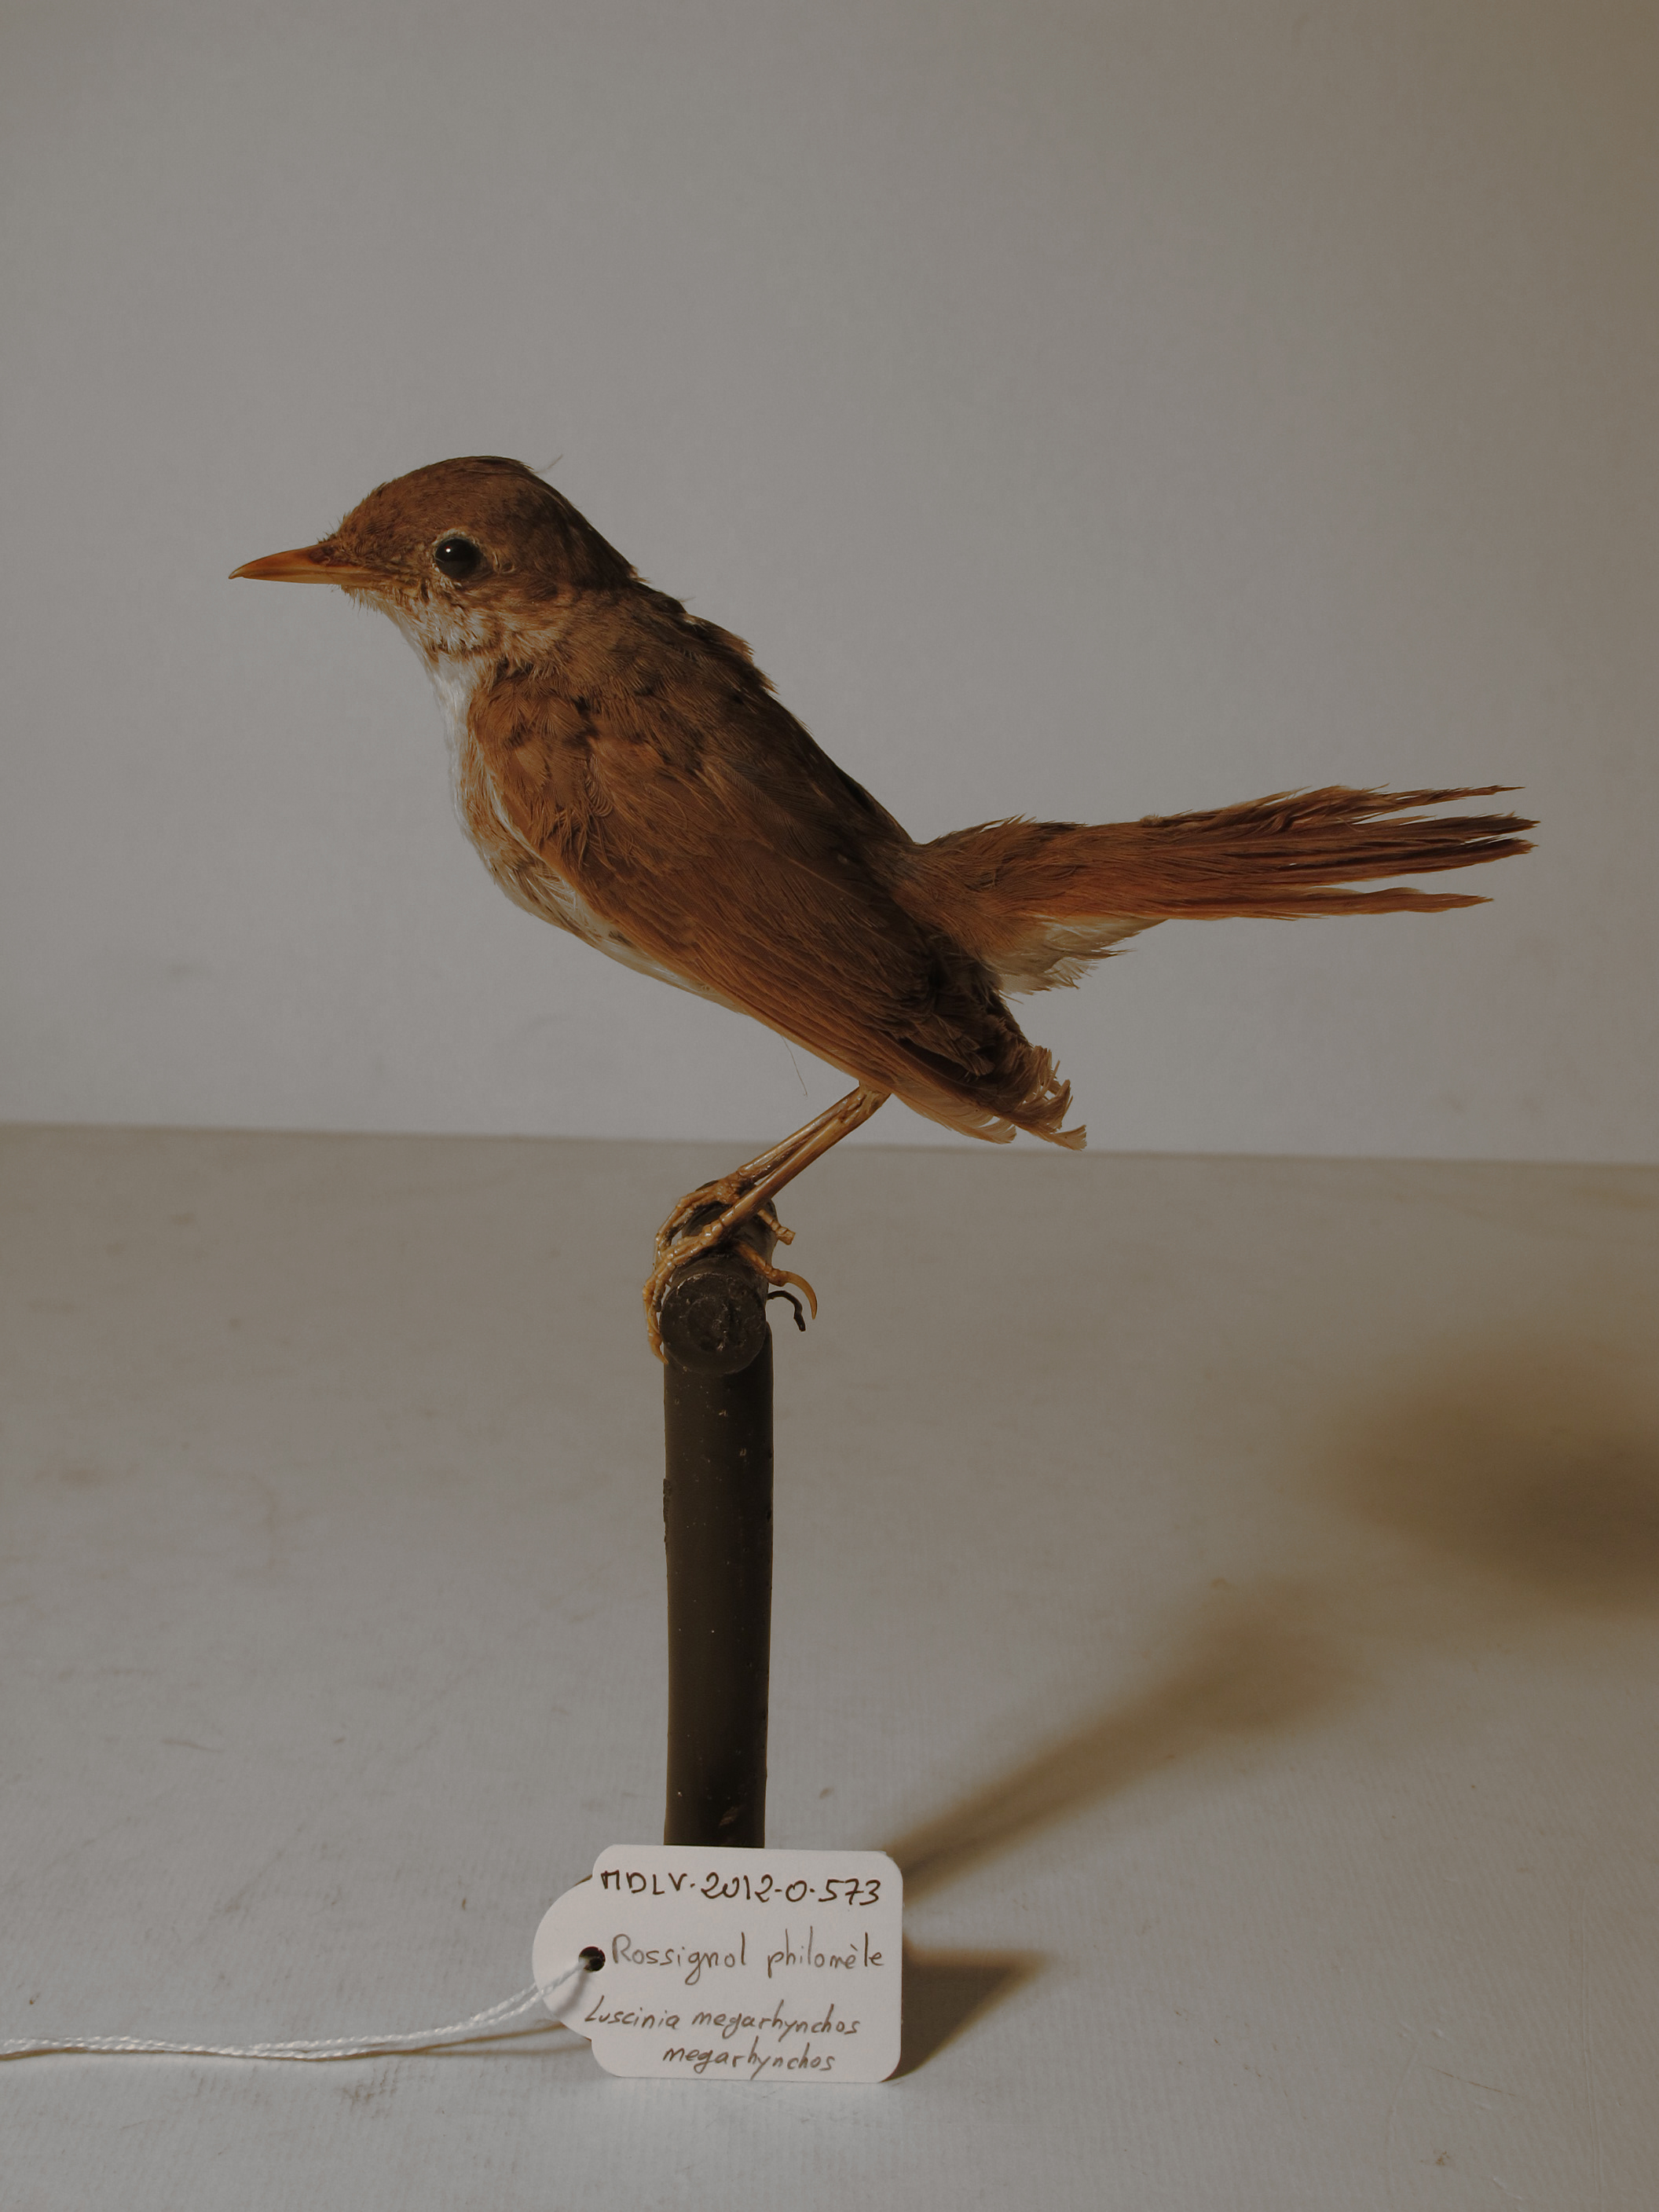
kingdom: Animalia
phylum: Chordata
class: Aves
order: Passeriformes
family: Muscicapidae
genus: Luscinia
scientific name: Luscinia megarhynchos
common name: Common Nightingale
